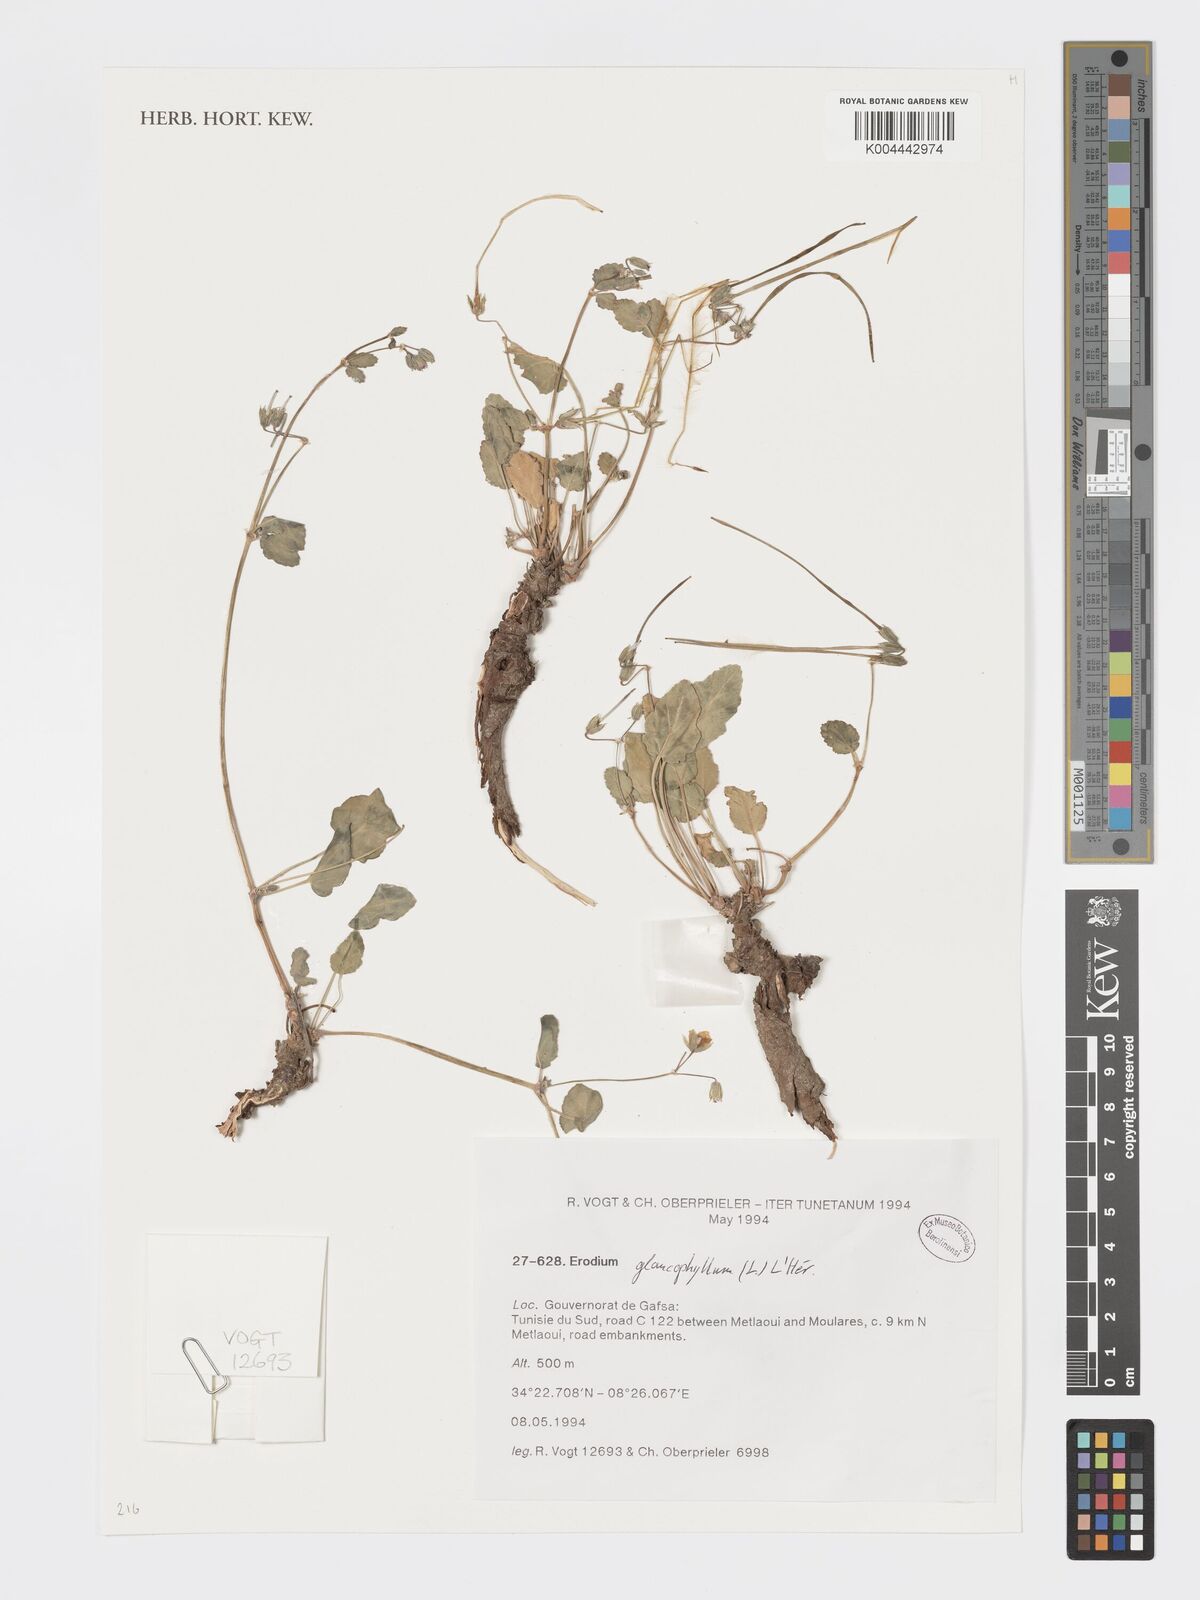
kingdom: Plantae
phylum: Tracheophyta
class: Magnoliopsida
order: Geraniales
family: Geraniaceae
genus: Erodium
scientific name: Erodium glaucophyllum
